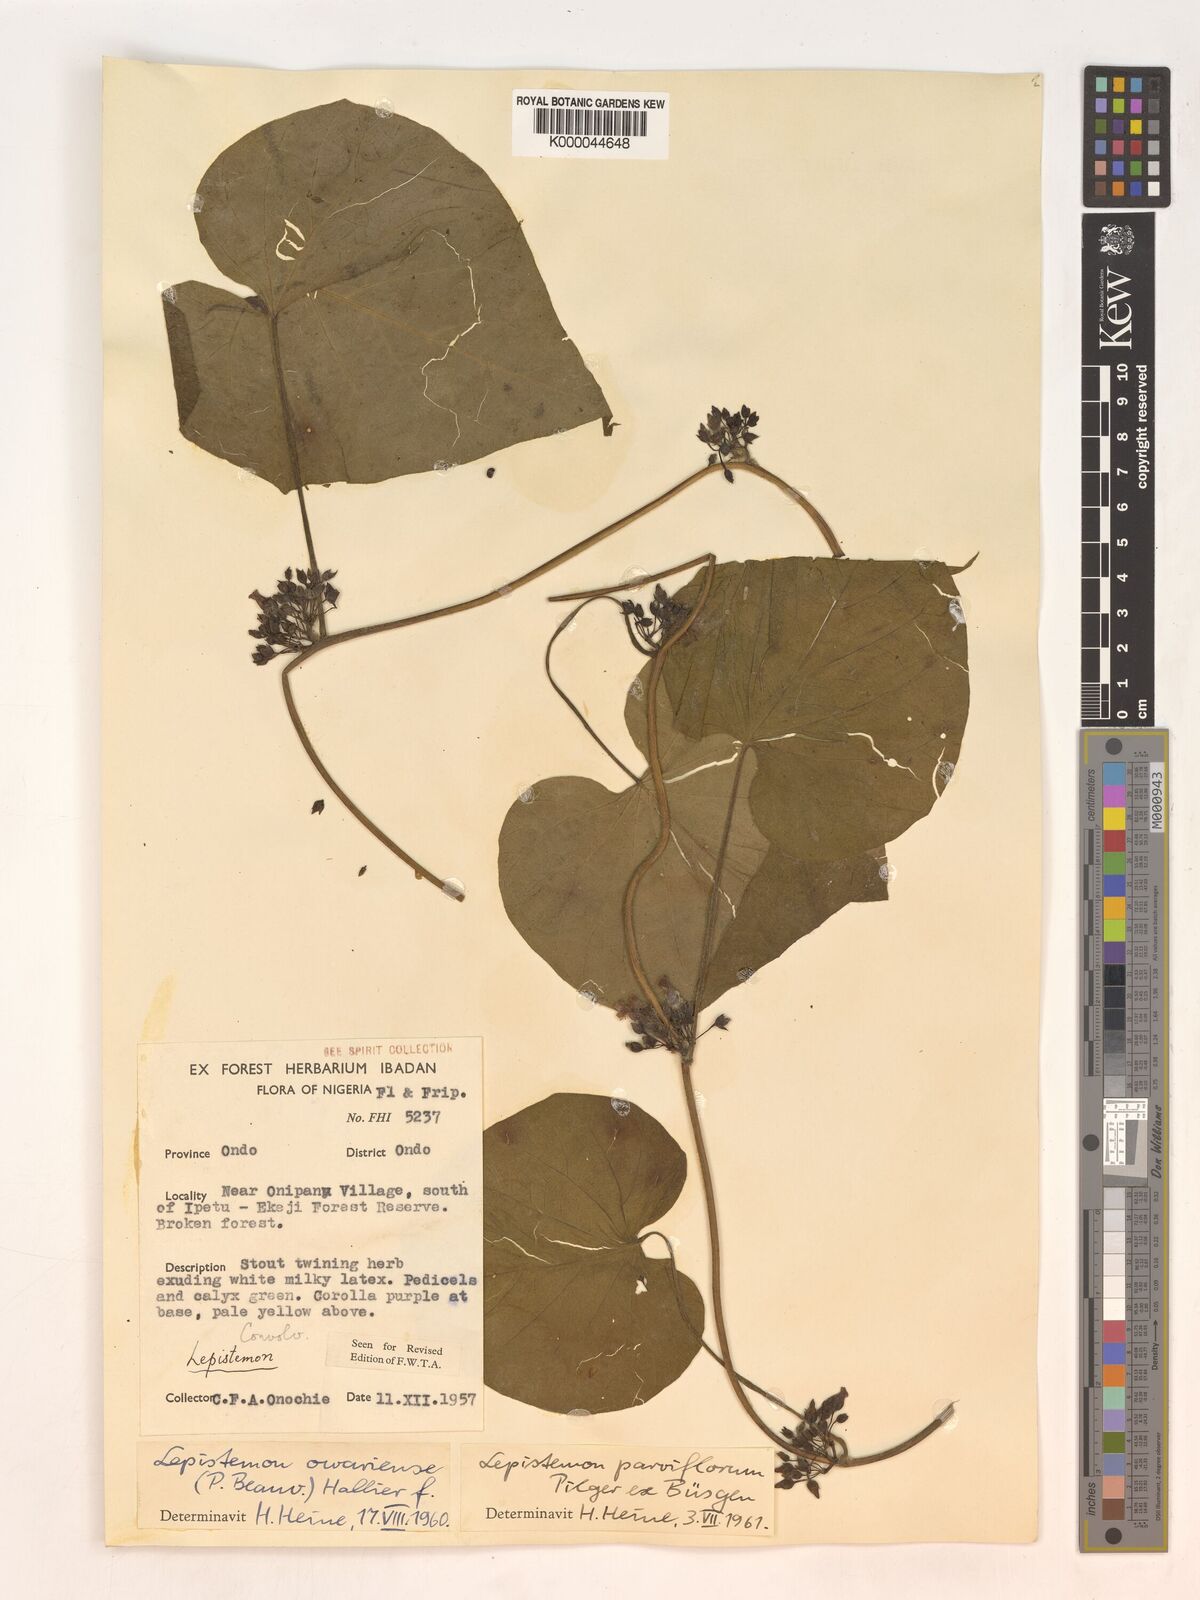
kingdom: Plantae
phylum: Tracheophyta
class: Magnoliopsida
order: Solanales
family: Convolvulaceae
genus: Lepistemon
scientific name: Lepistemon
